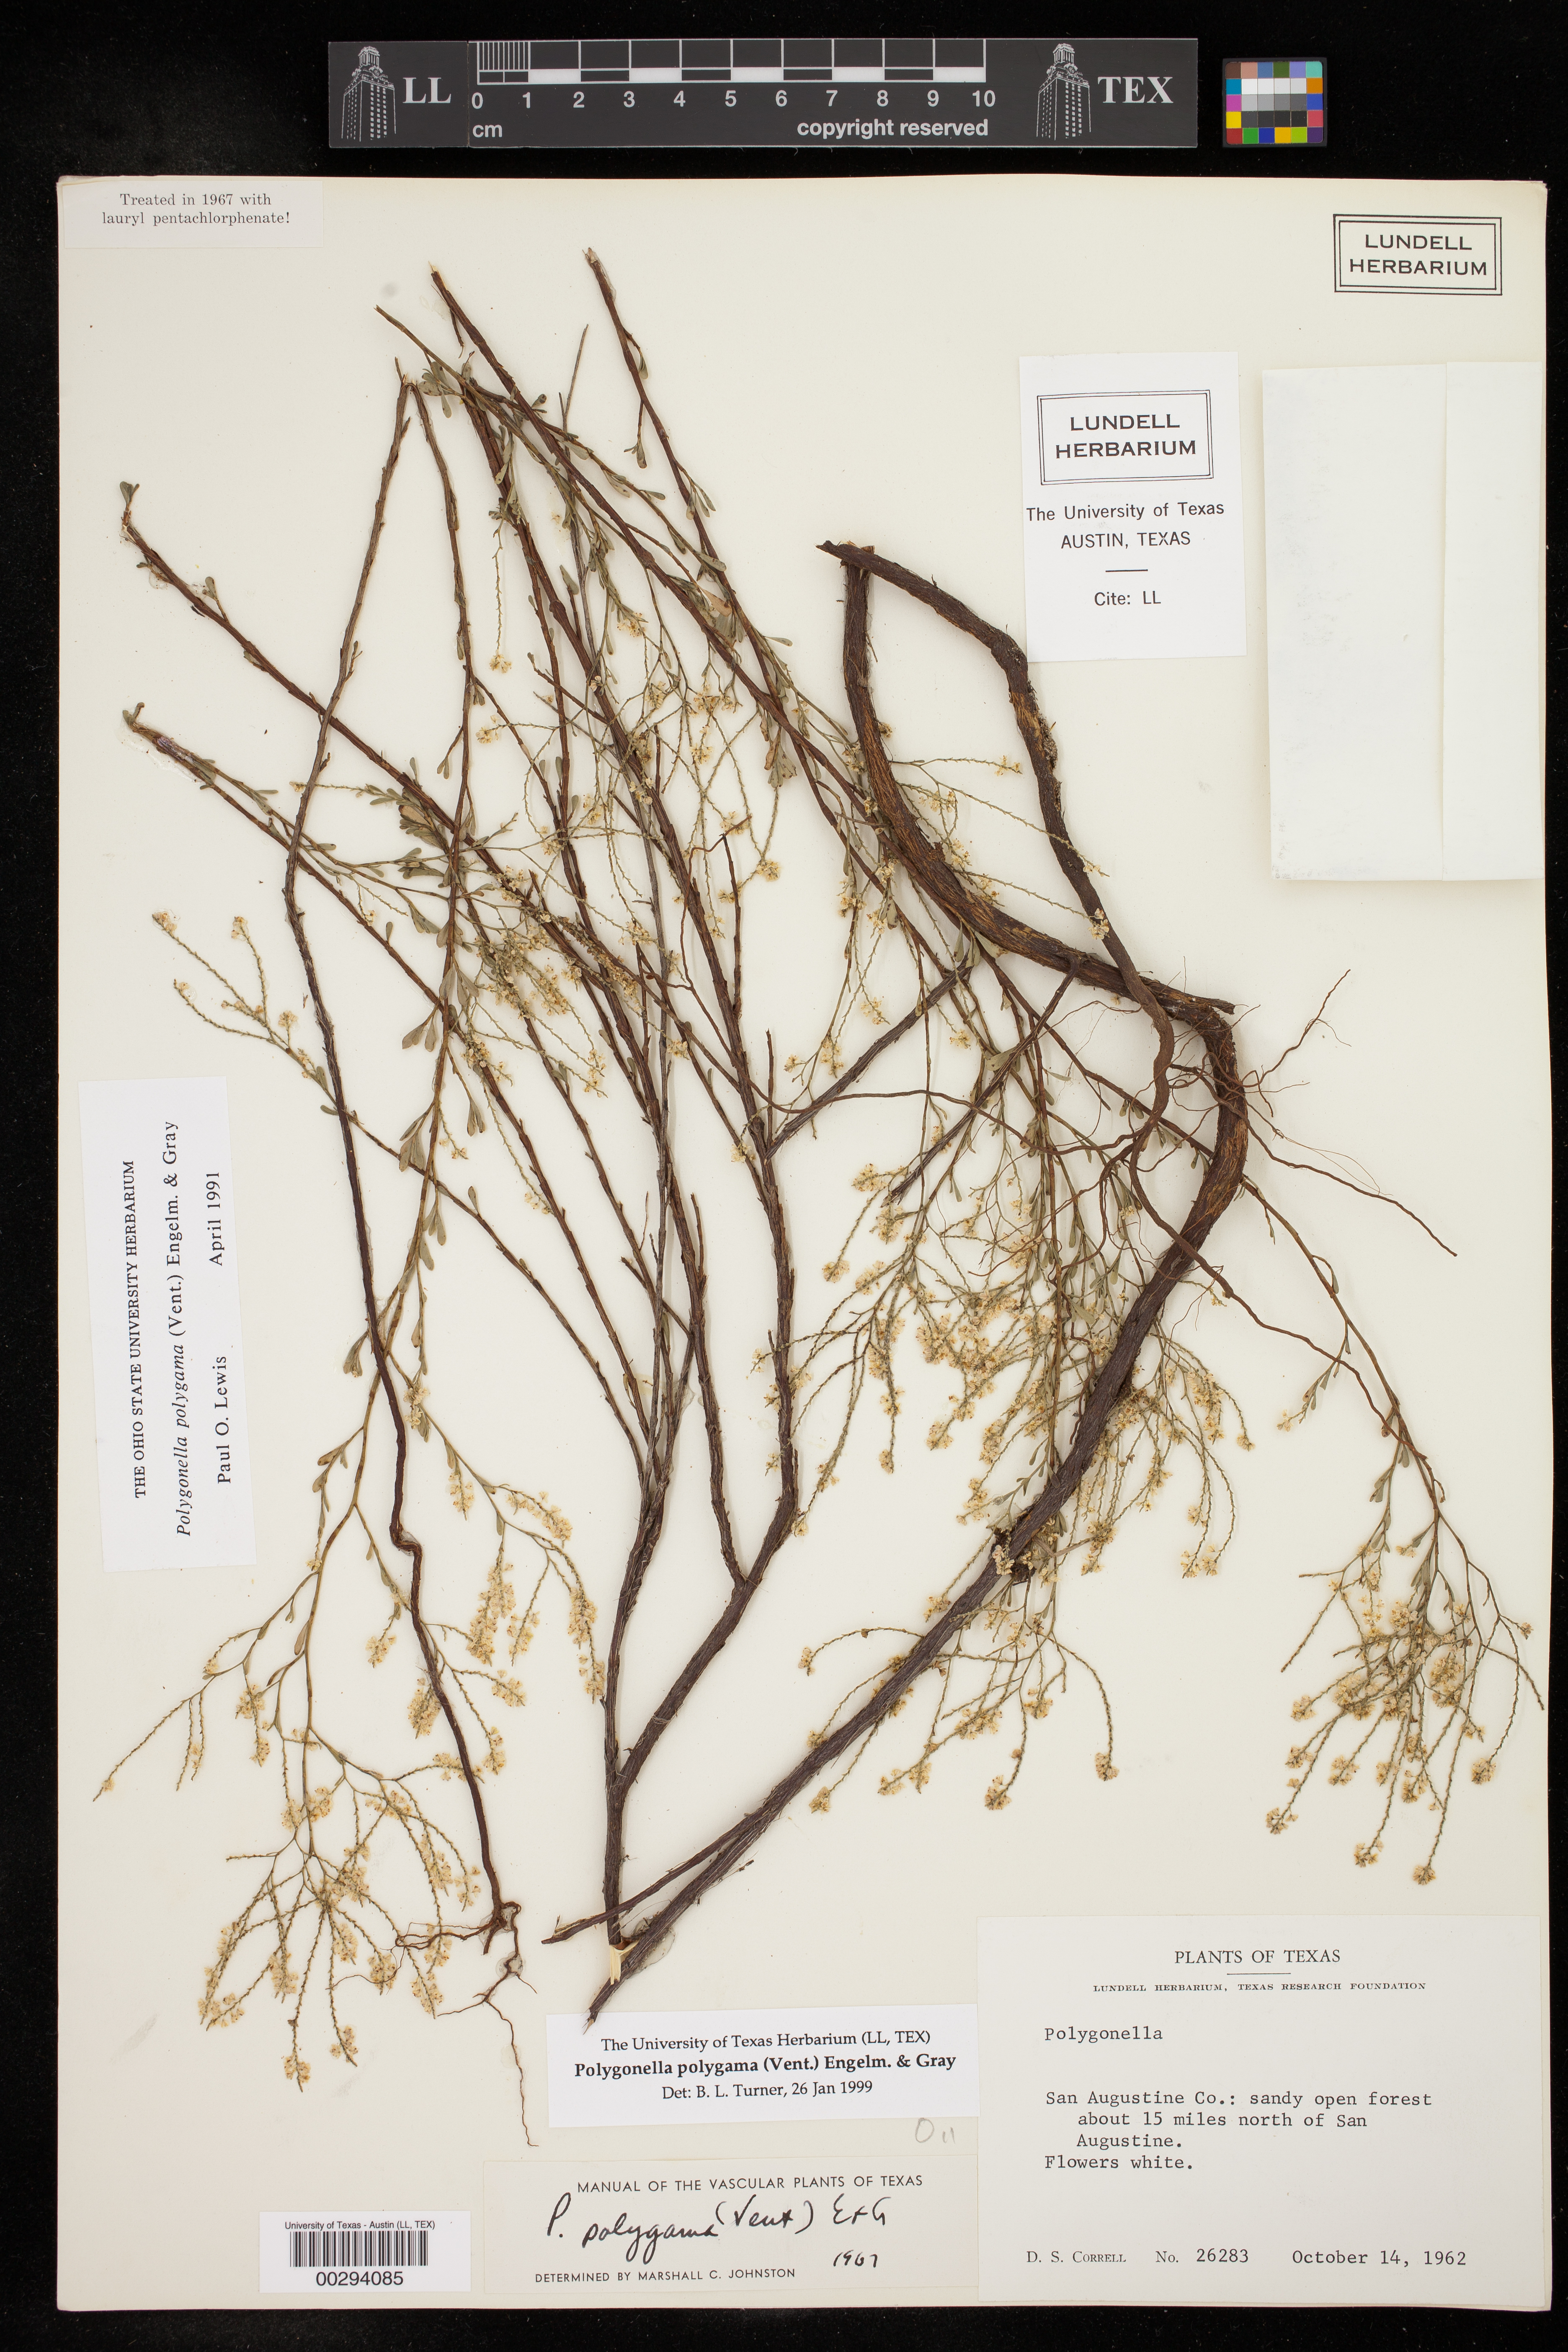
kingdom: Plantae
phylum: Tracheophyta
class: Magnoliopsida
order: Caryophyllales
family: Polygonaceae
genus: Polygonella
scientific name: Polygonella polygama
